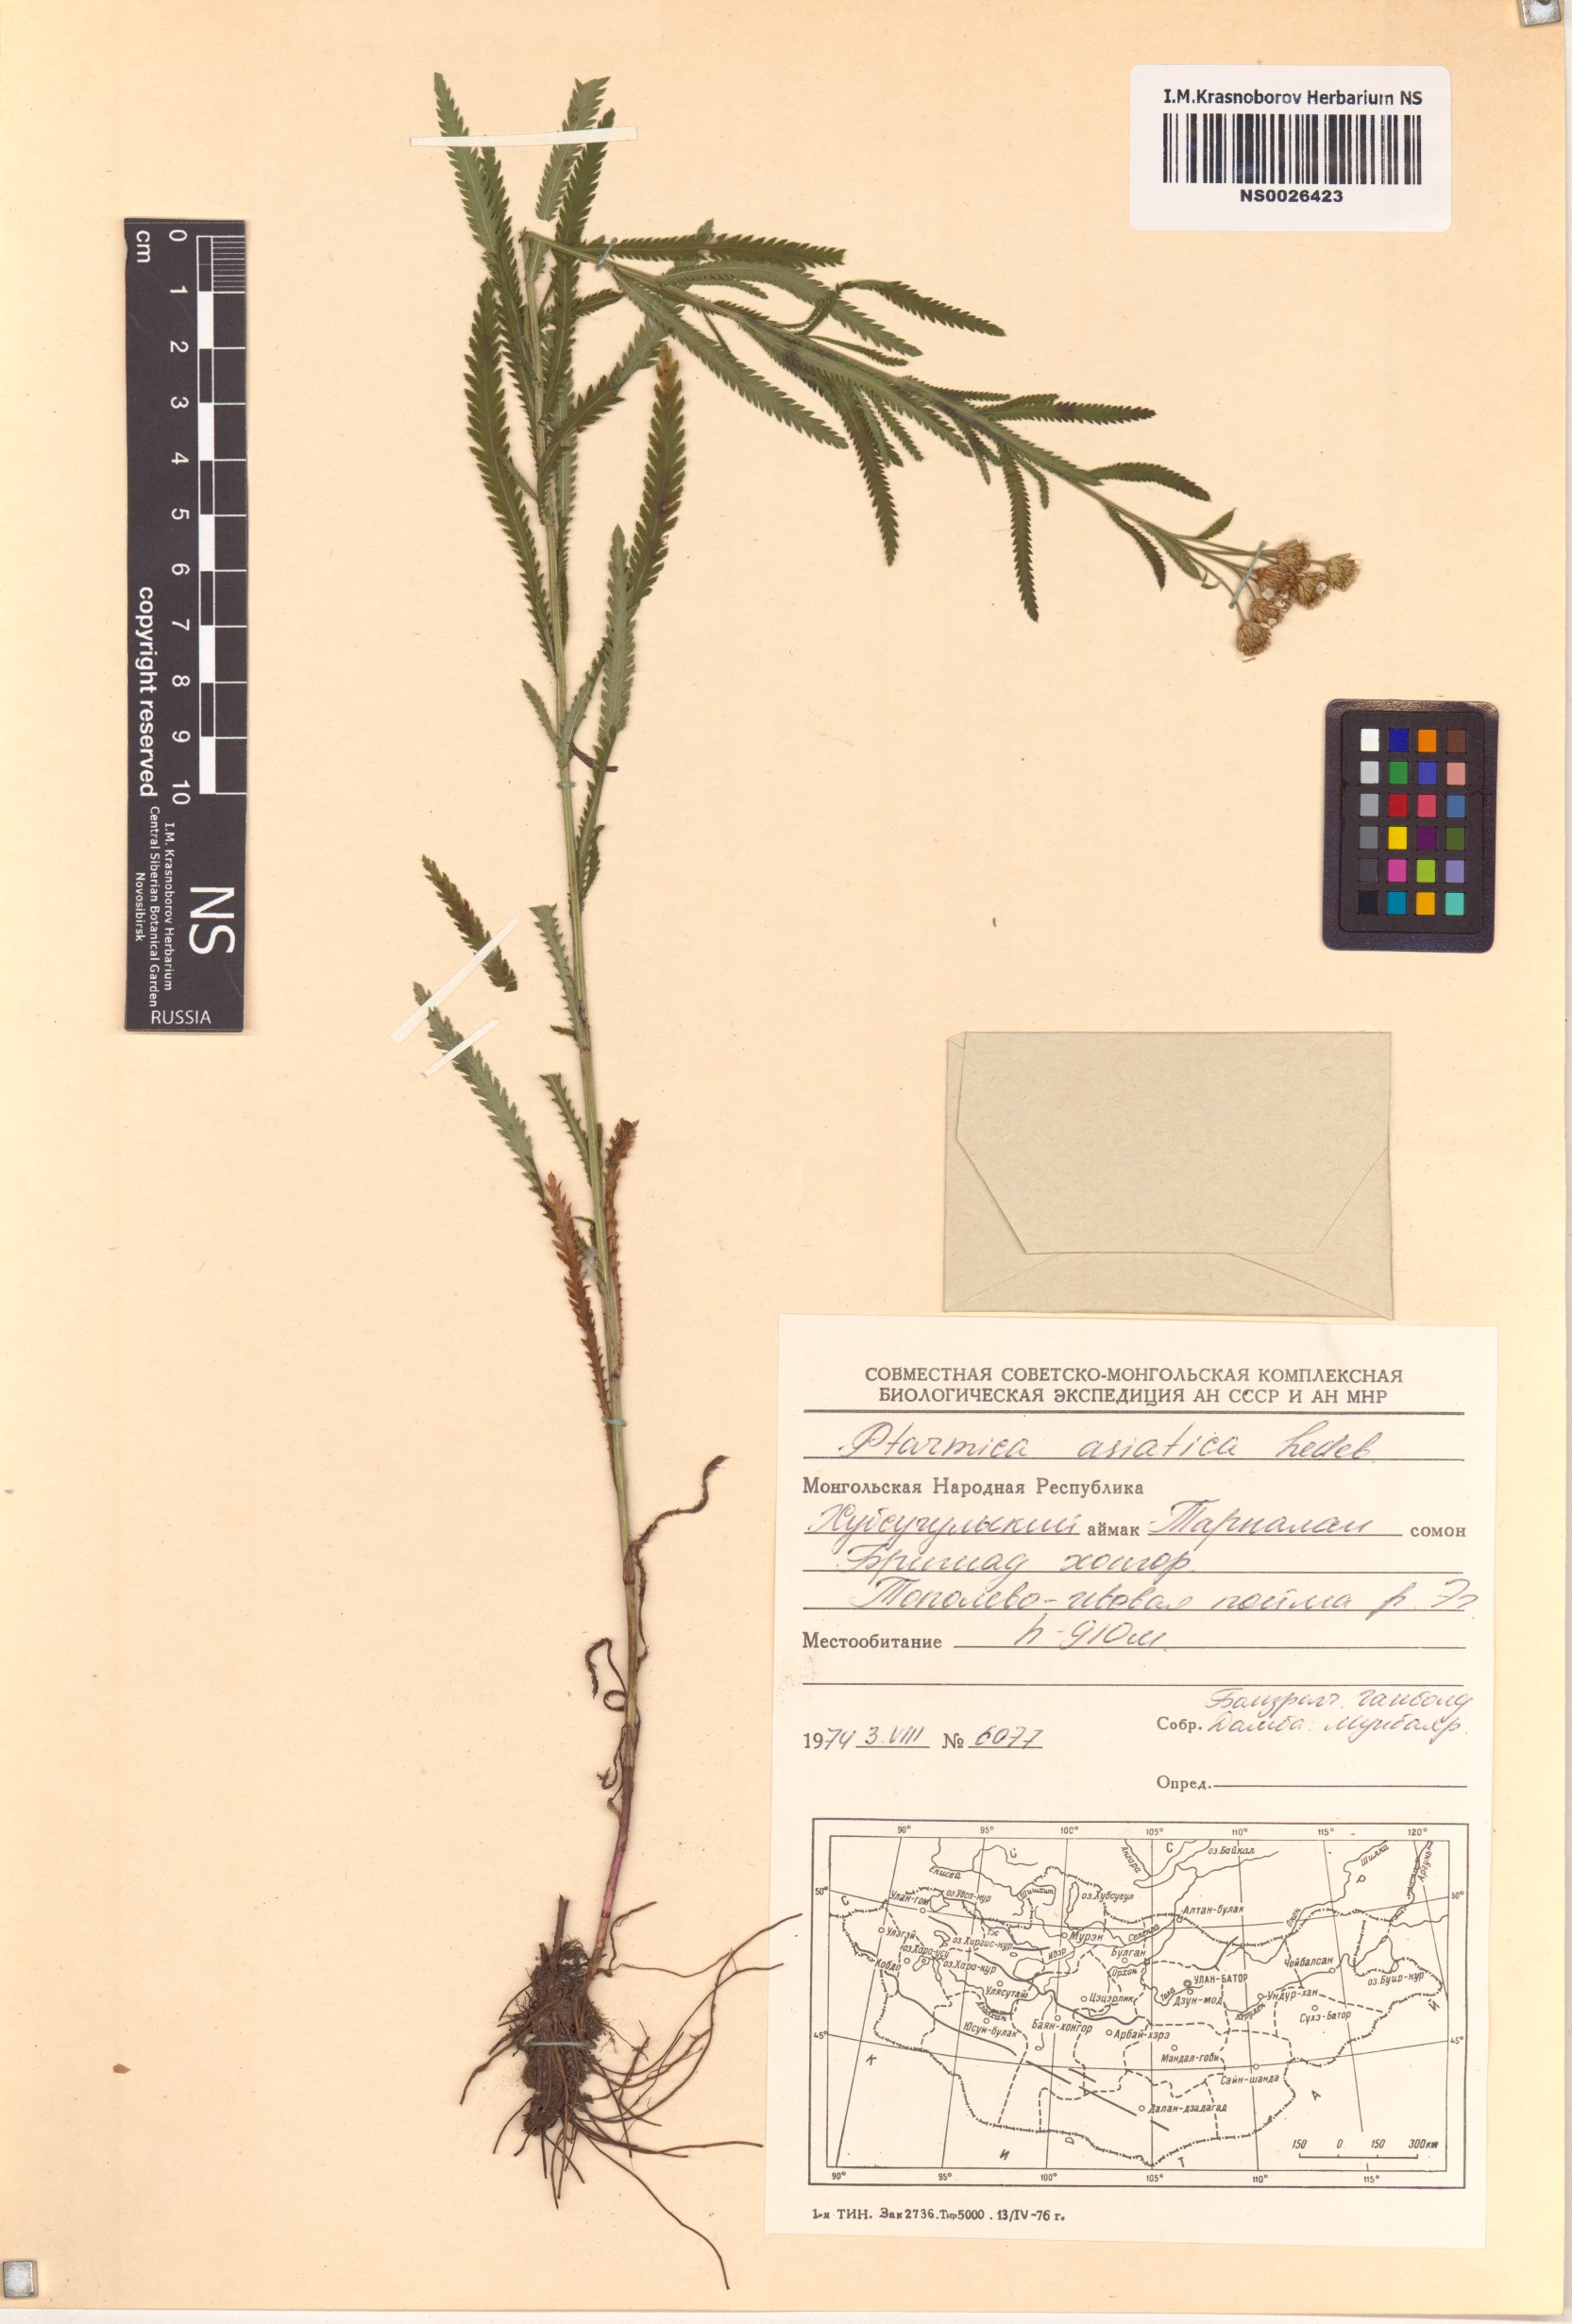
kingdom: Plantae
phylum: Tracheophyta
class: Magnoliopsida
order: Asterales
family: Asteraceae
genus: Ptarmica
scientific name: Ptarmica
